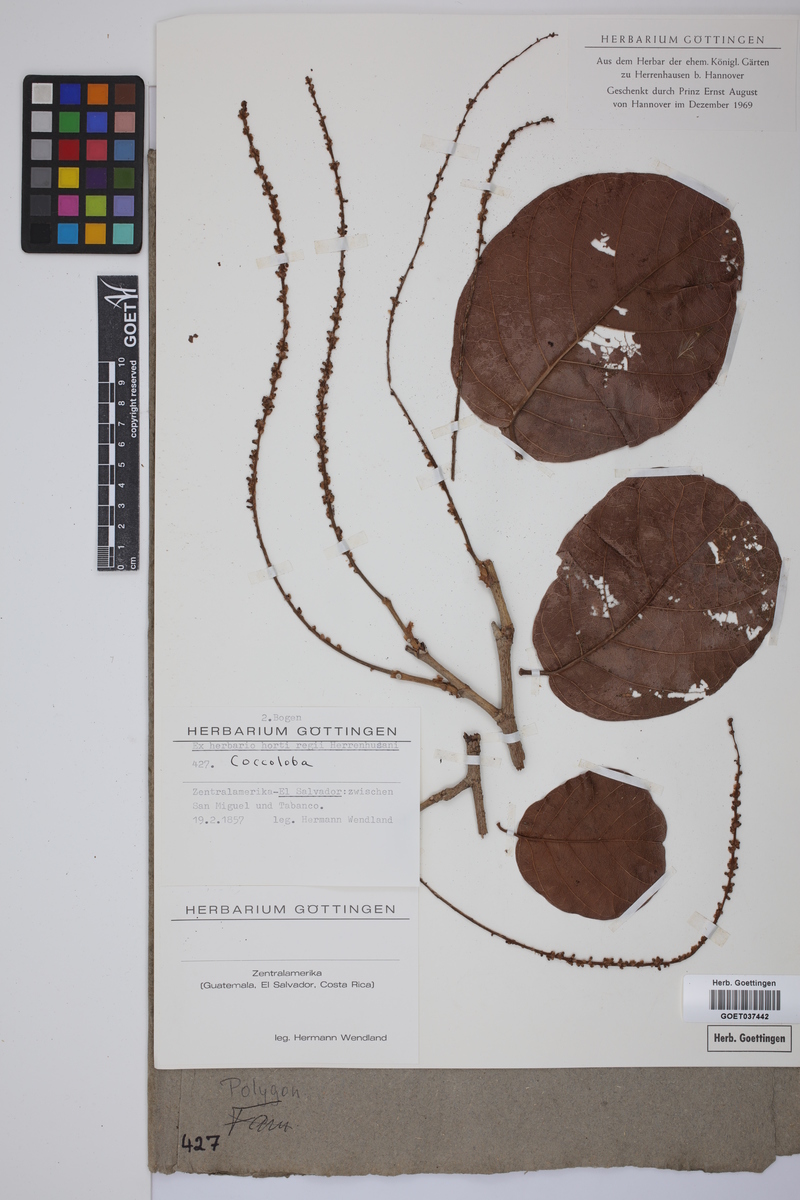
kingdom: Plantae
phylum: Tracheophyta
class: Magnoliopsida
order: Caryophyllales
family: Polygonaceae
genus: Coccoloba
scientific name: Coccoloba
